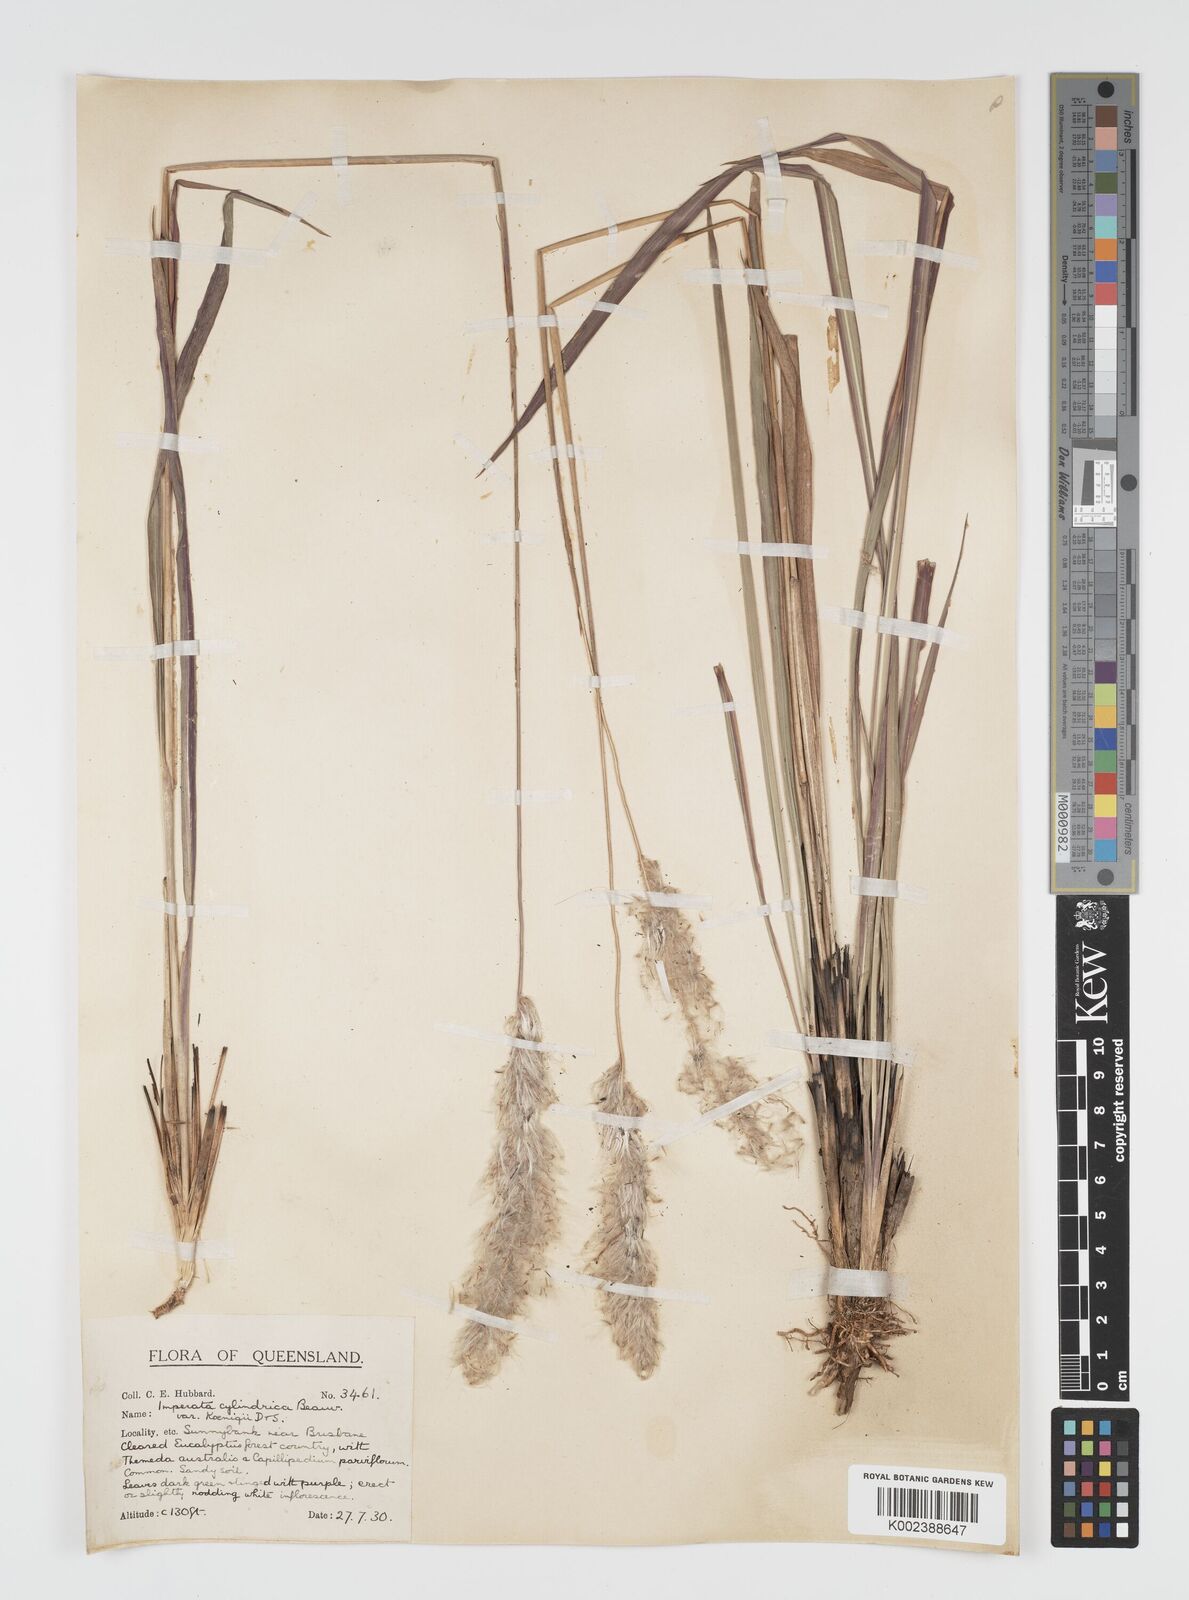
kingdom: Plantae
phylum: Tracheophyta
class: Liliopsida
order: Poales
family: Poaceae
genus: Imperata
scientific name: Imperata cylindrica
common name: Cogongrass
